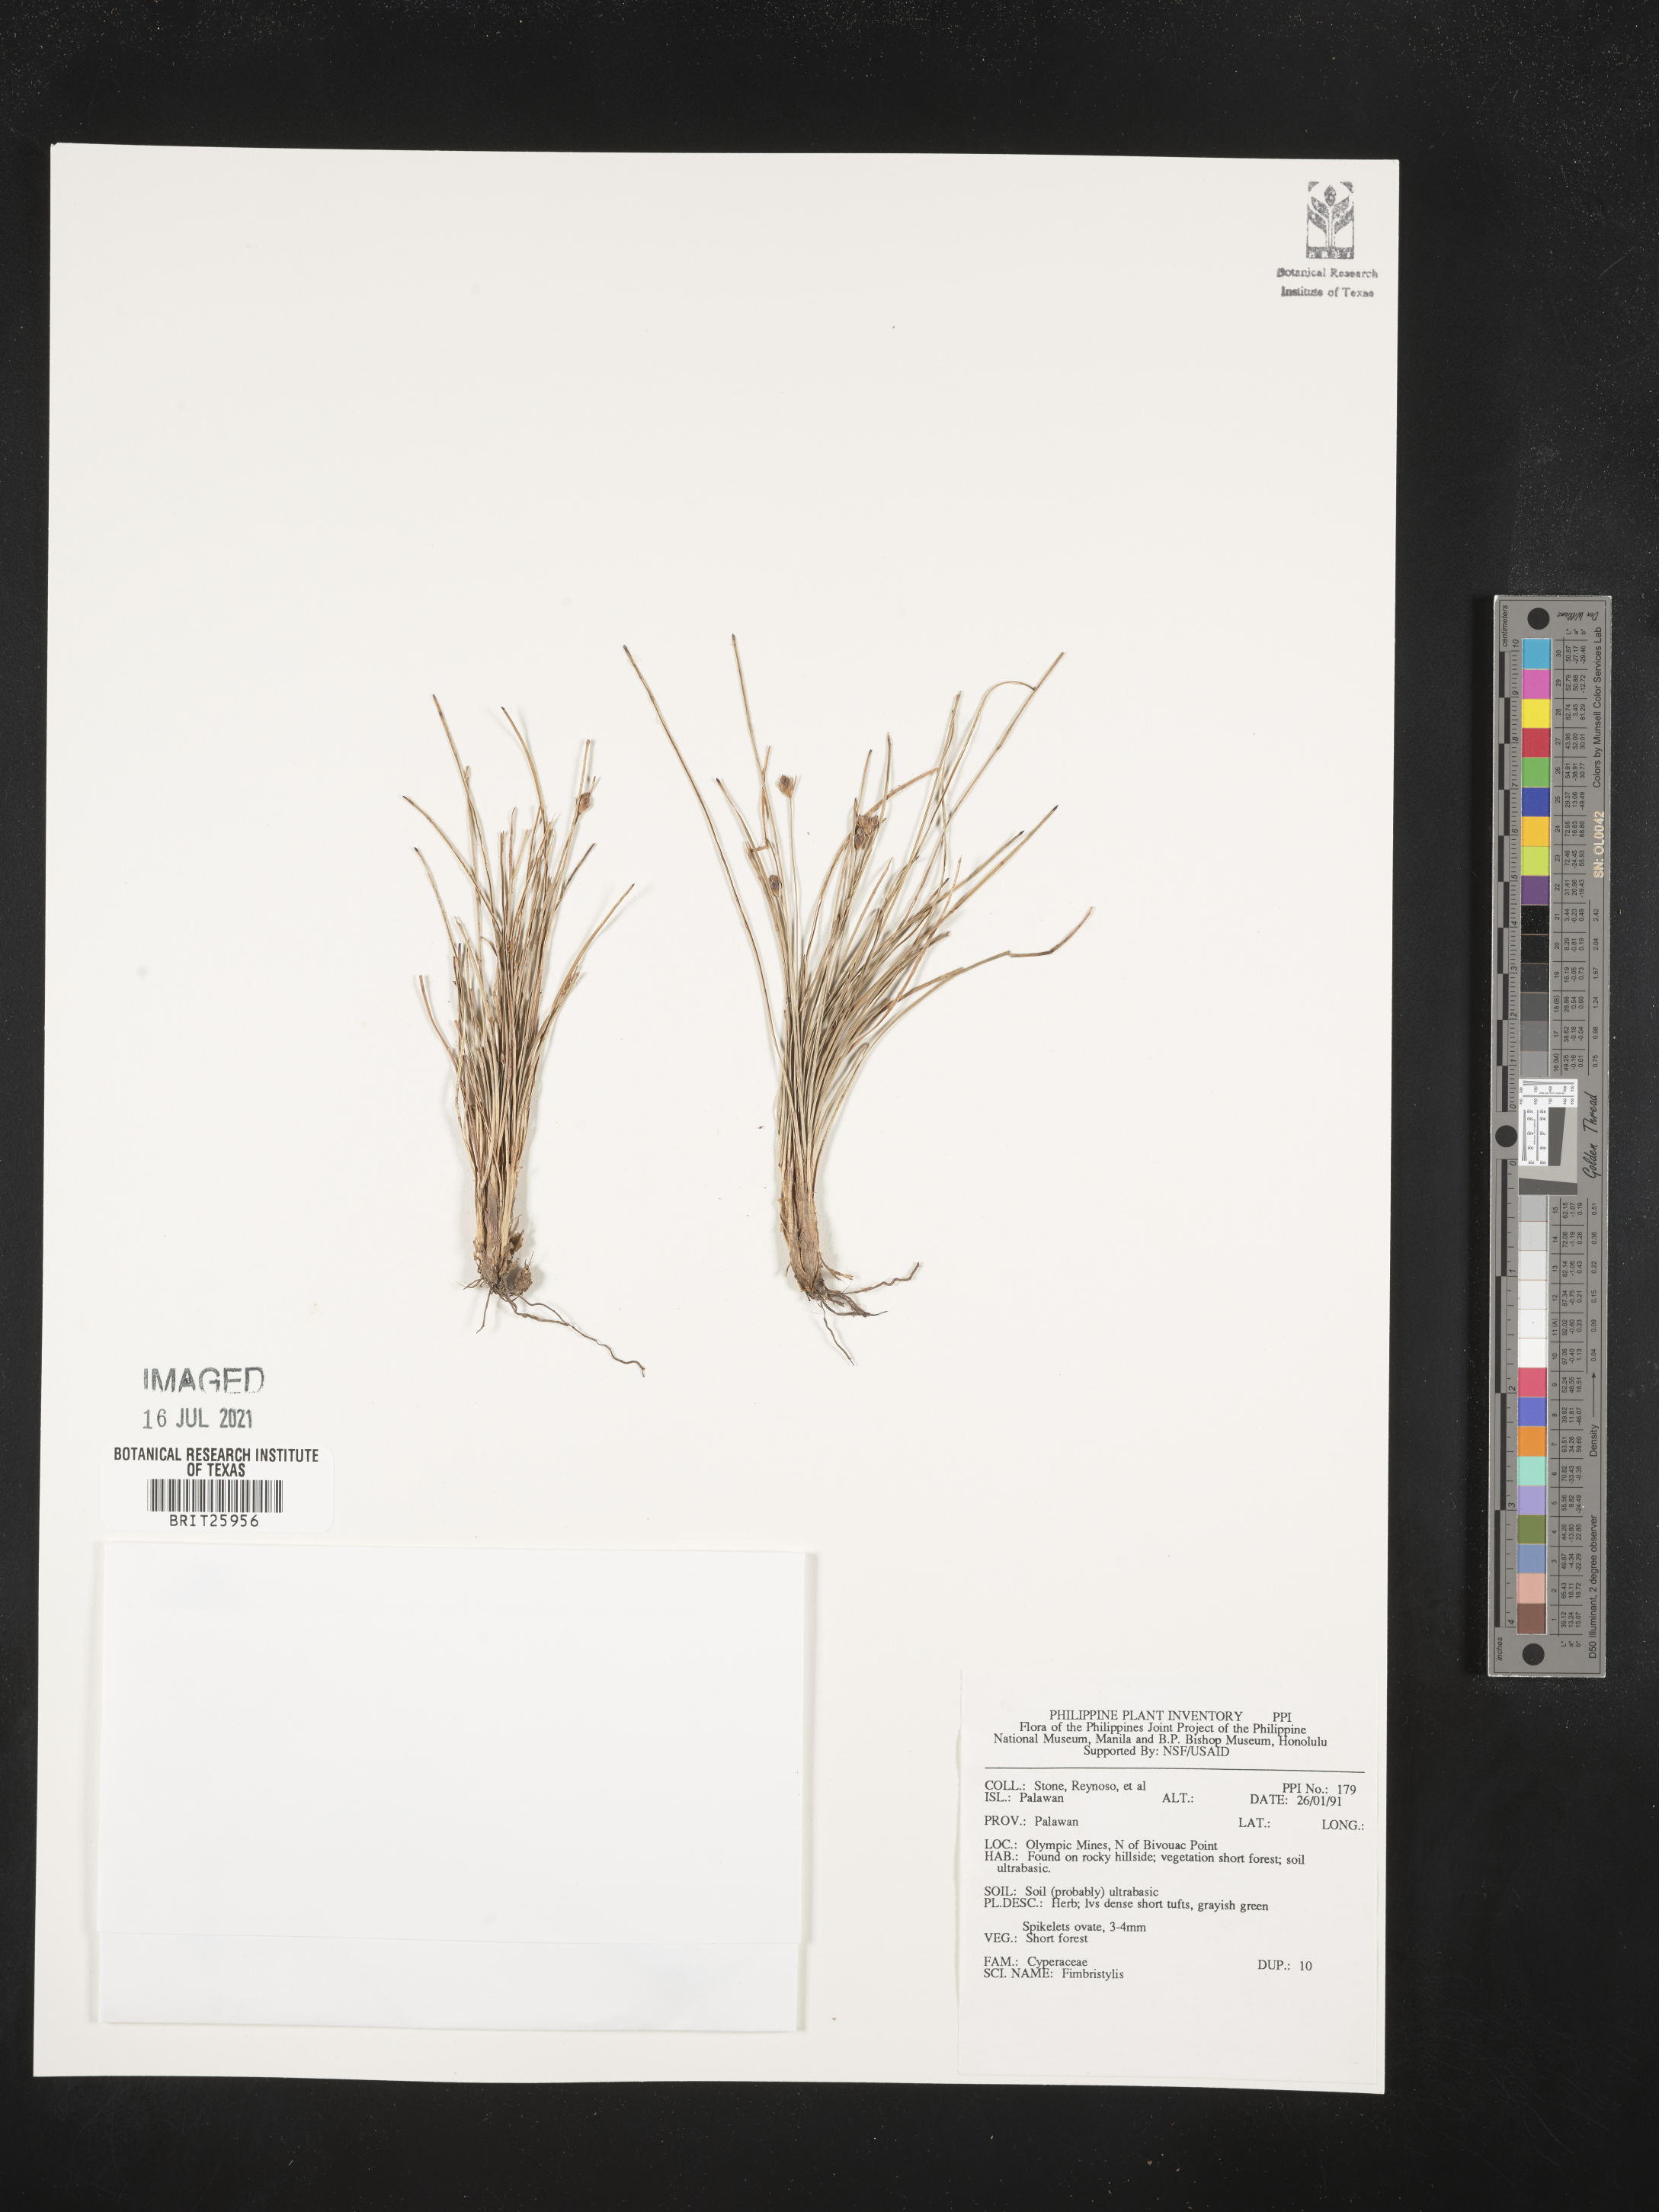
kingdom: Plantae
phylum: Tracheophyta
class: Liliopsida
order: Poales
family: Cyperaceae
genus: Fimbristylis
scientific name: Fimbristylis
